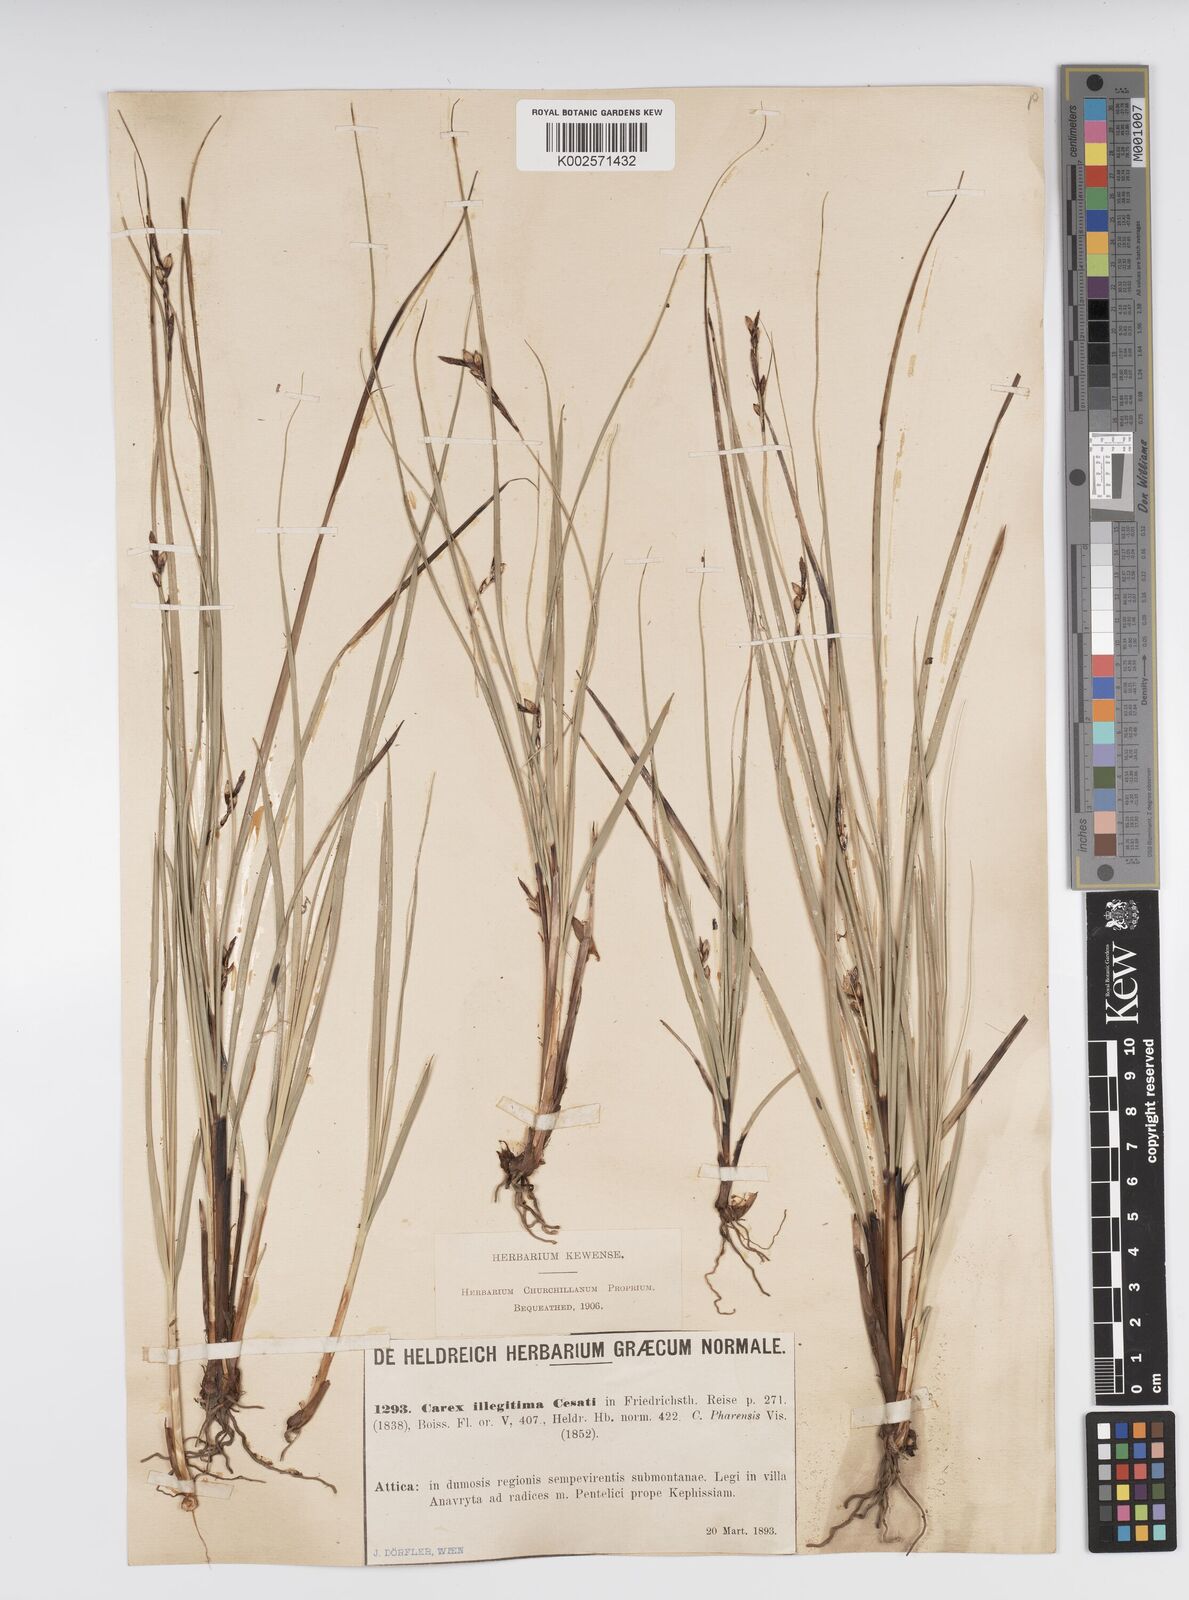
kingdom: Plantae
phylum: Tracheophyta
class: Liliopsida
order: Poales
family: Cyperaceae
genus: Carex
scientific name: Carex illegitima
